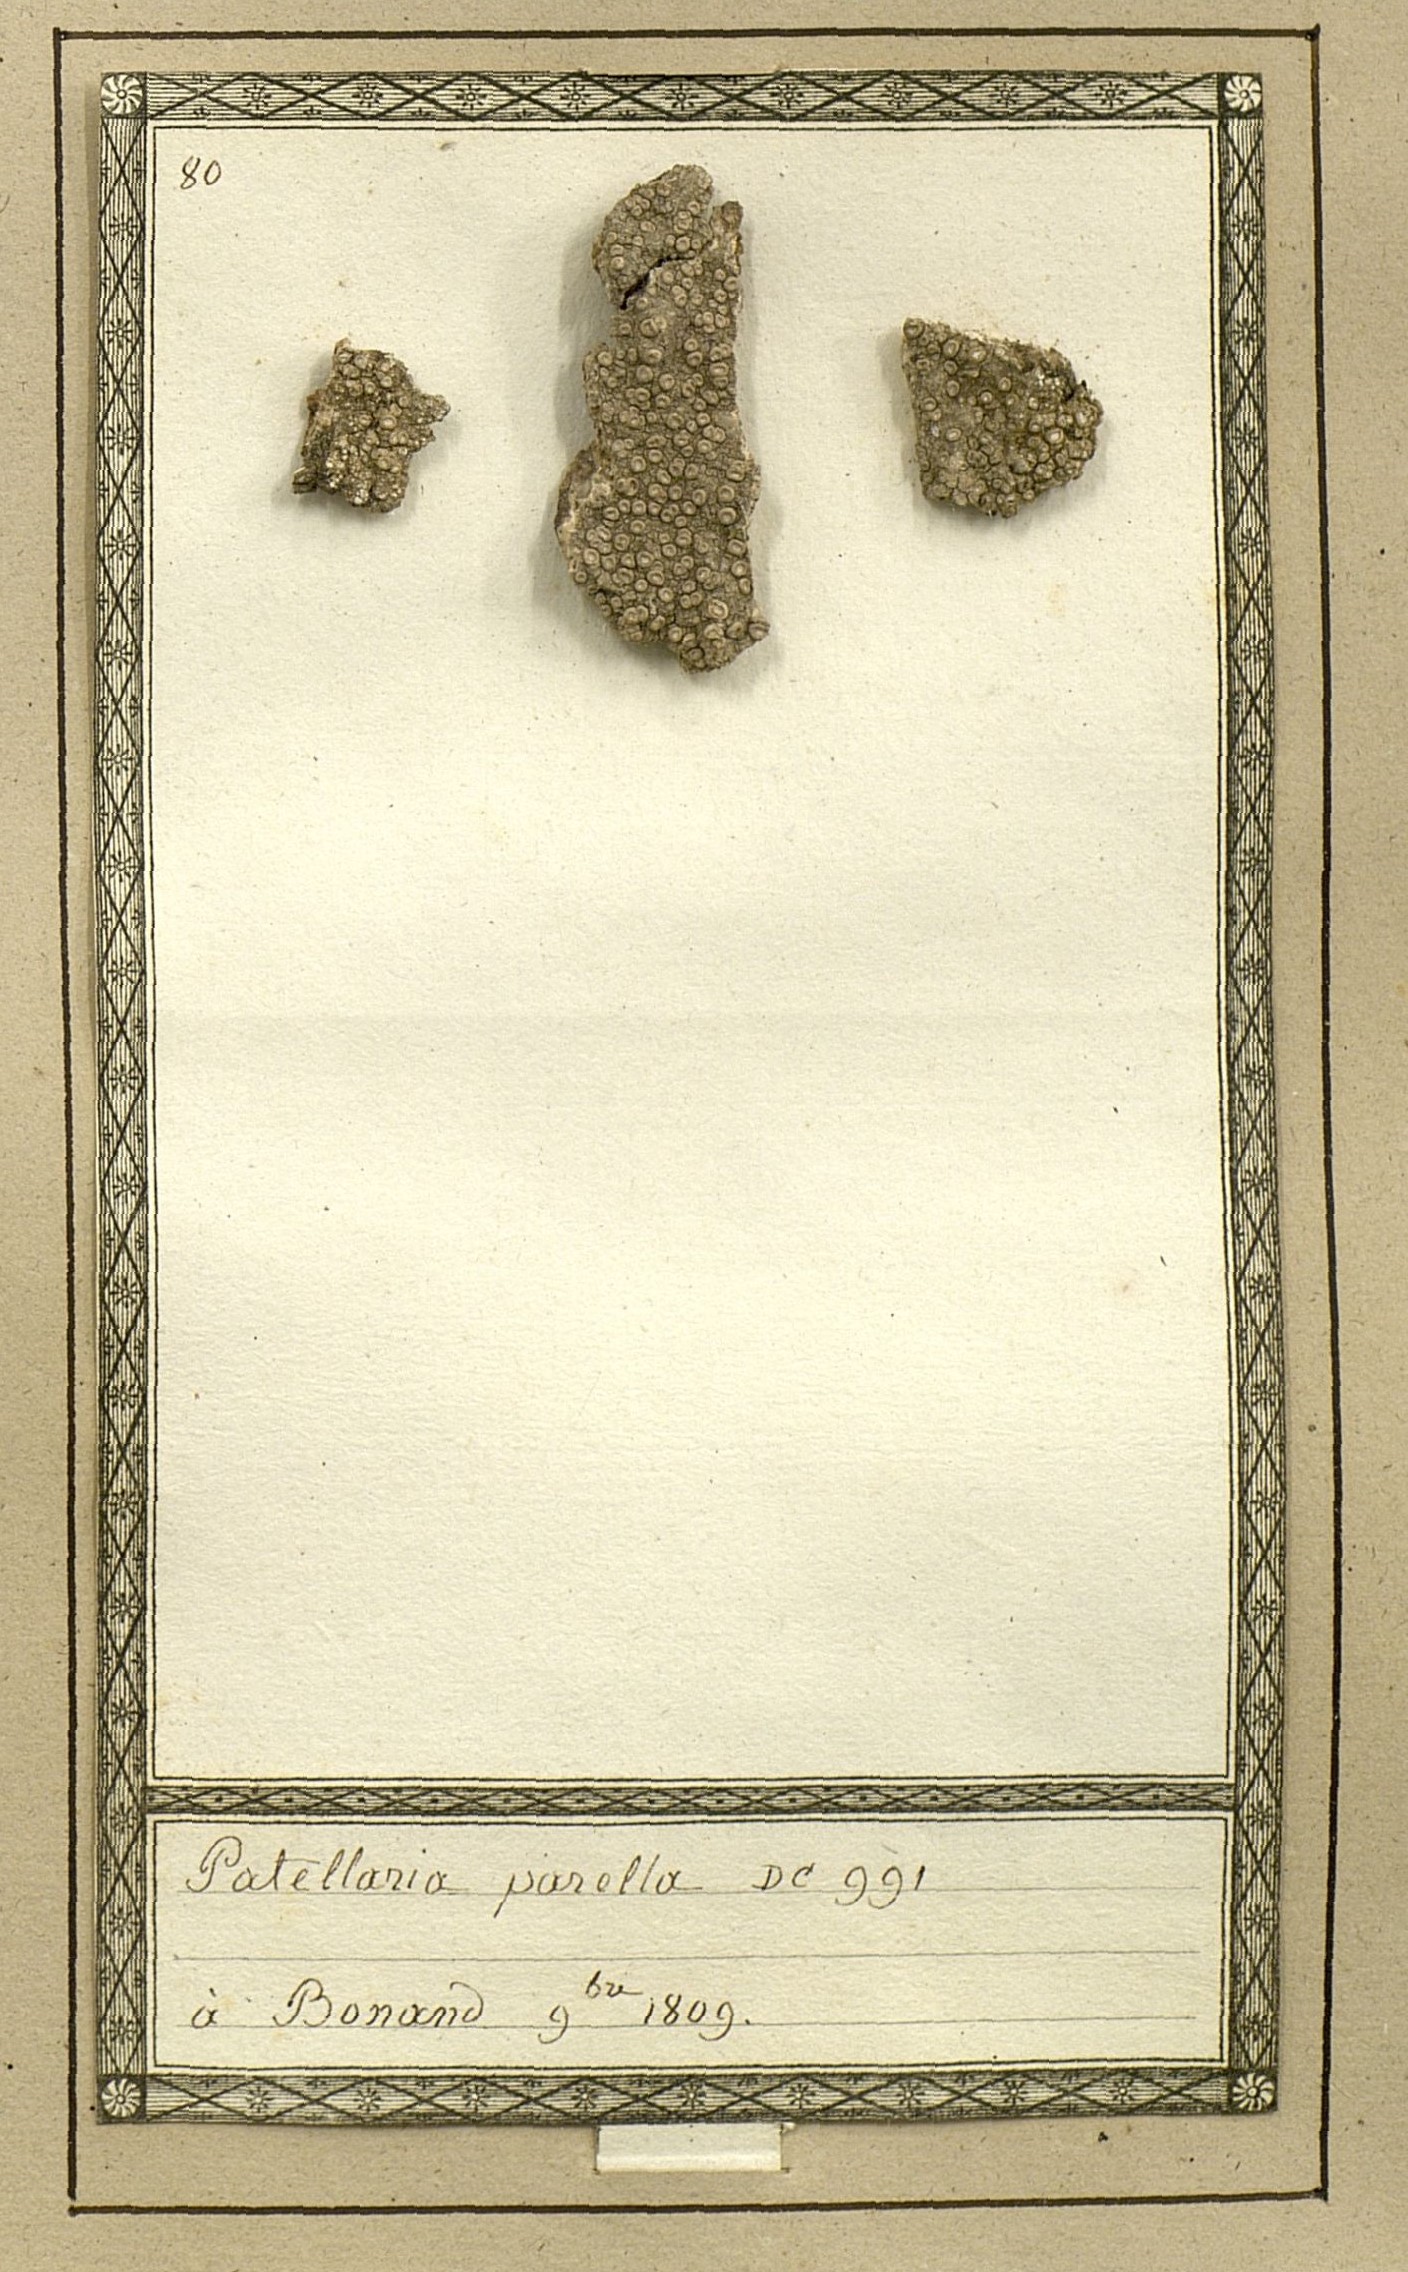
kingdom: Fungi
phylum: Ascomycota
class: Lecanoromycetes
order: Pertusariales
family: Ochrolechiaceae
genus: Ochrolechia
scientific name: Ochrolechia parella
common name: Crab's eye lichen
